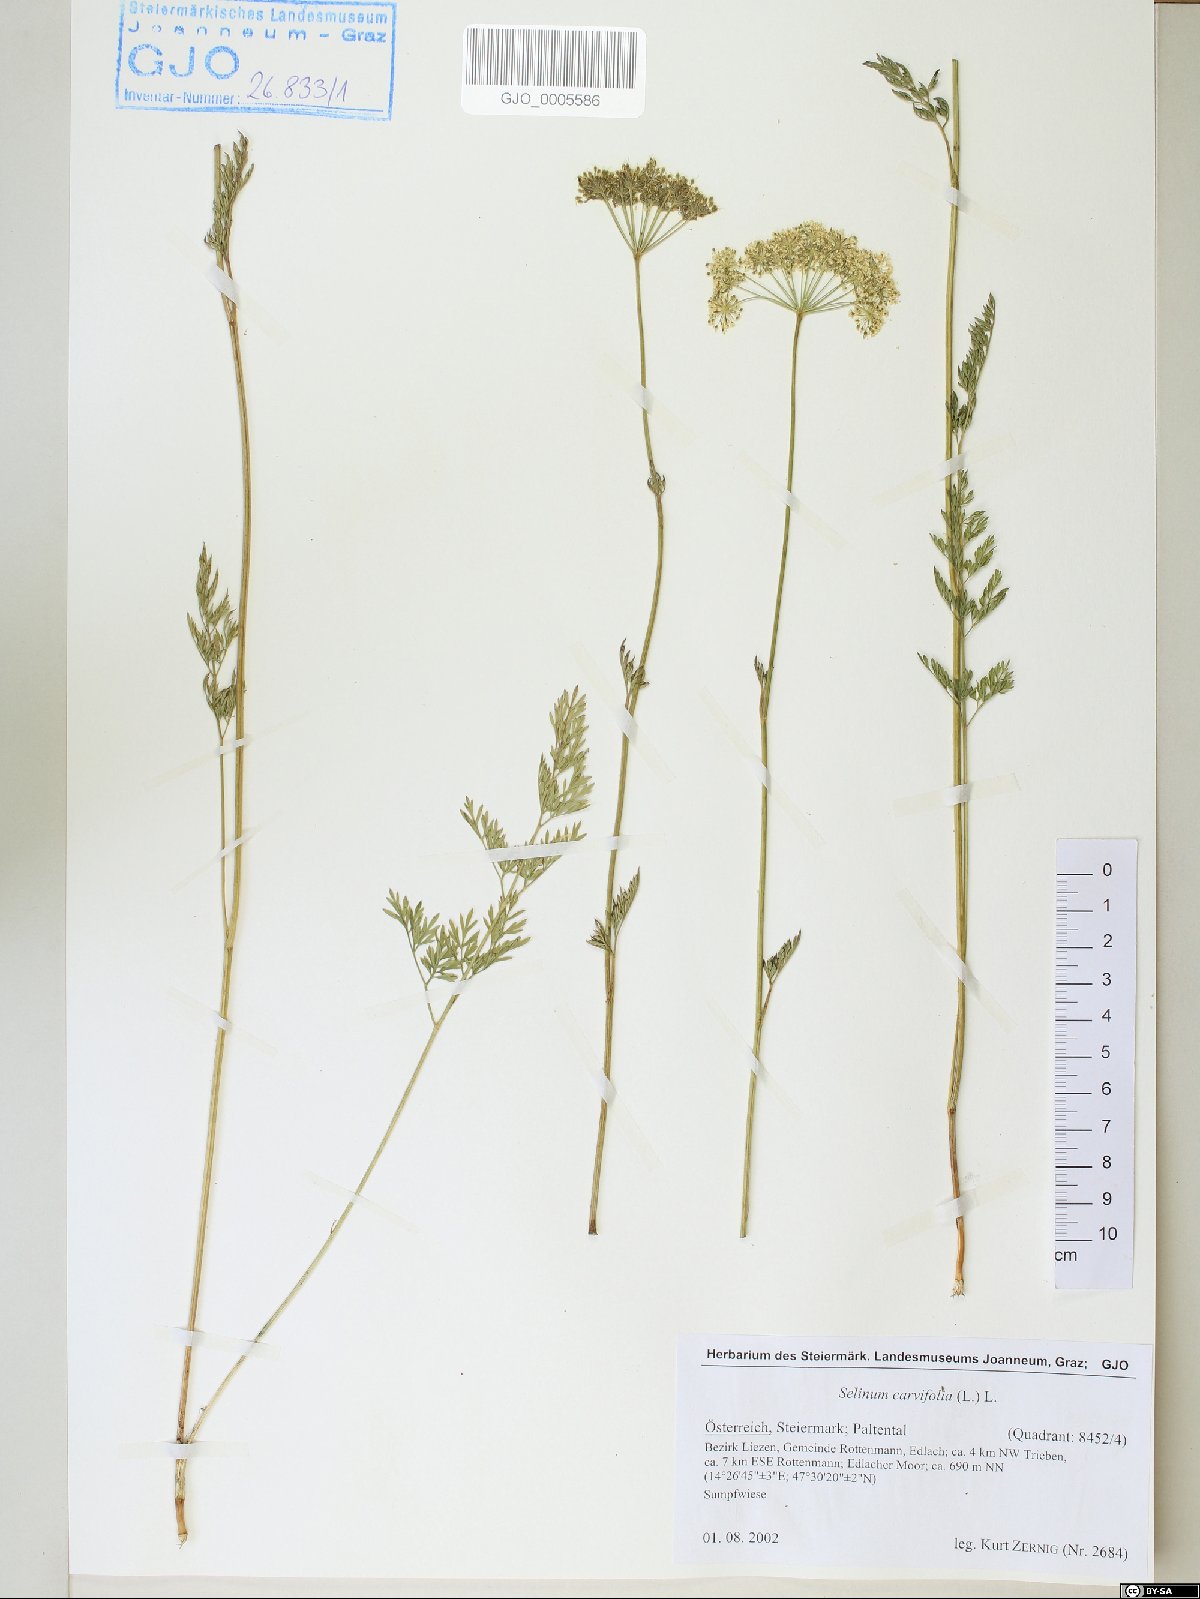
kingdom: Plantae
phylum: Tracheophyta
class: Magnoliopsida
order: Apiales
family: Apiaceae
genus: Selinum
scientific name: Selinum carvifolia
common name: Cambridge milk-parsley
